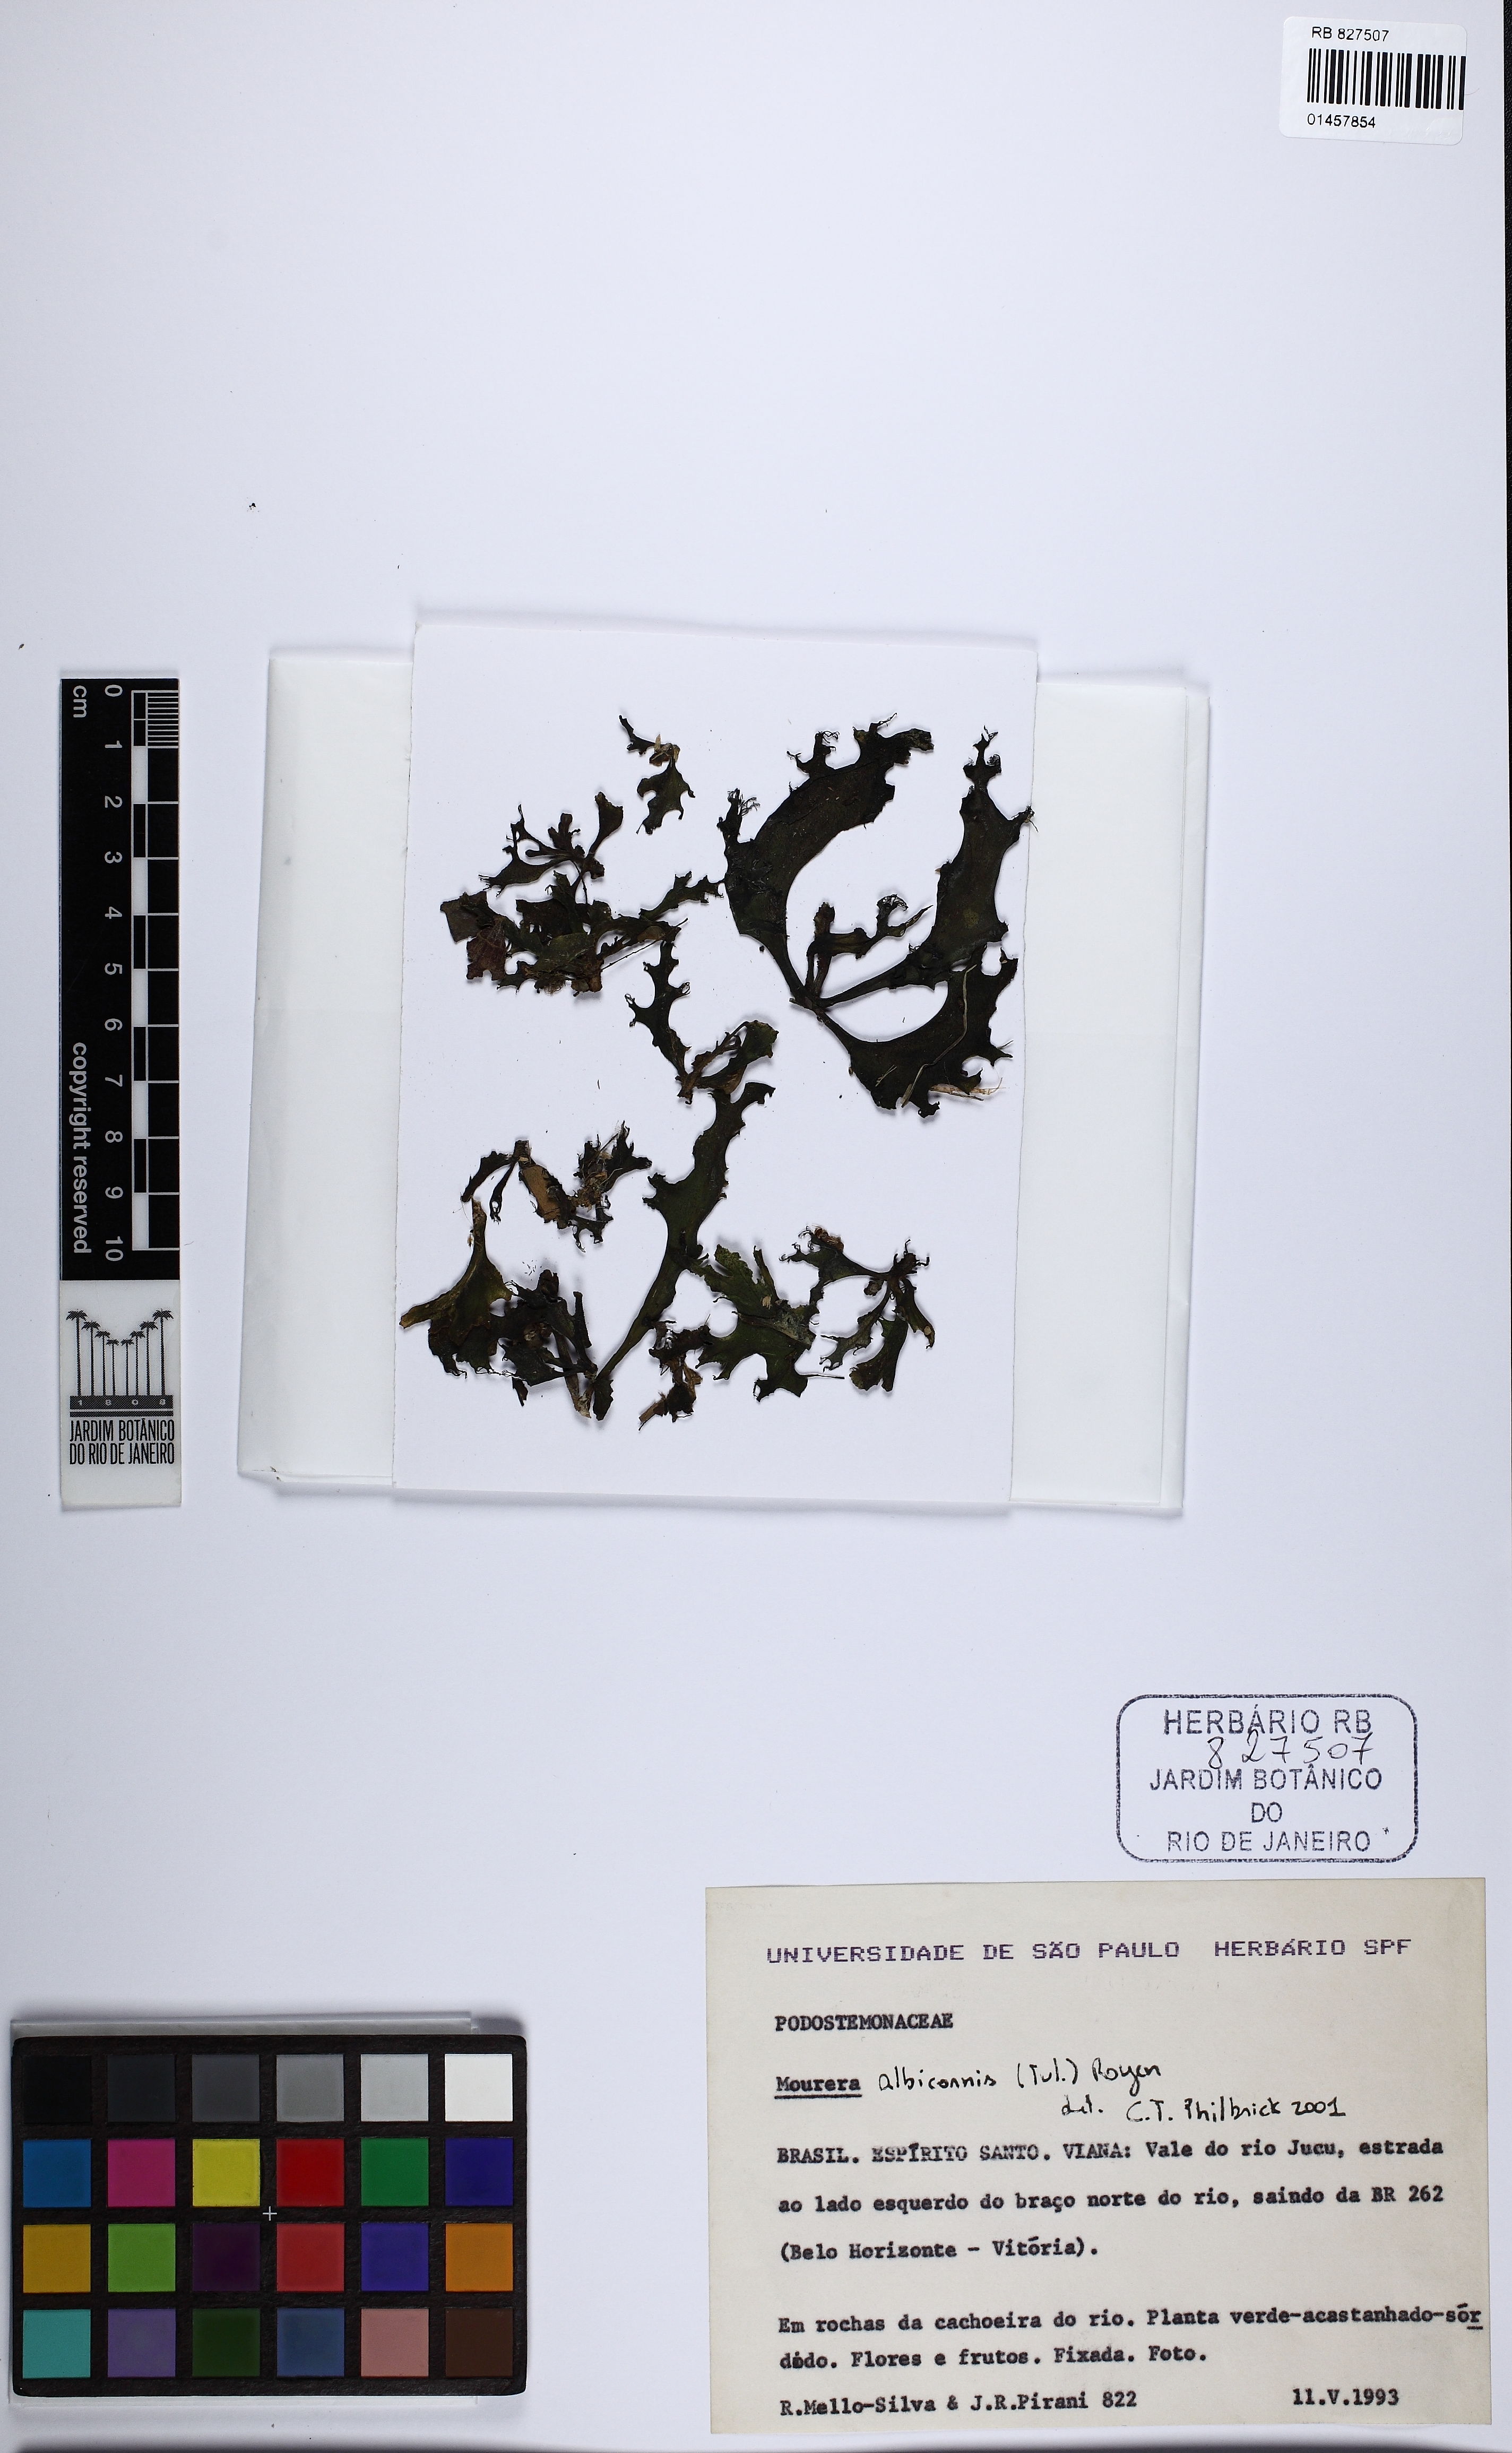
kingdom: Plantae
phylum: Tracheophyta
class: Magnoliopsida
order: Malpighiales
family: Podostemaceae
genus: Mourera
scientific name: Mourera alcicornis
